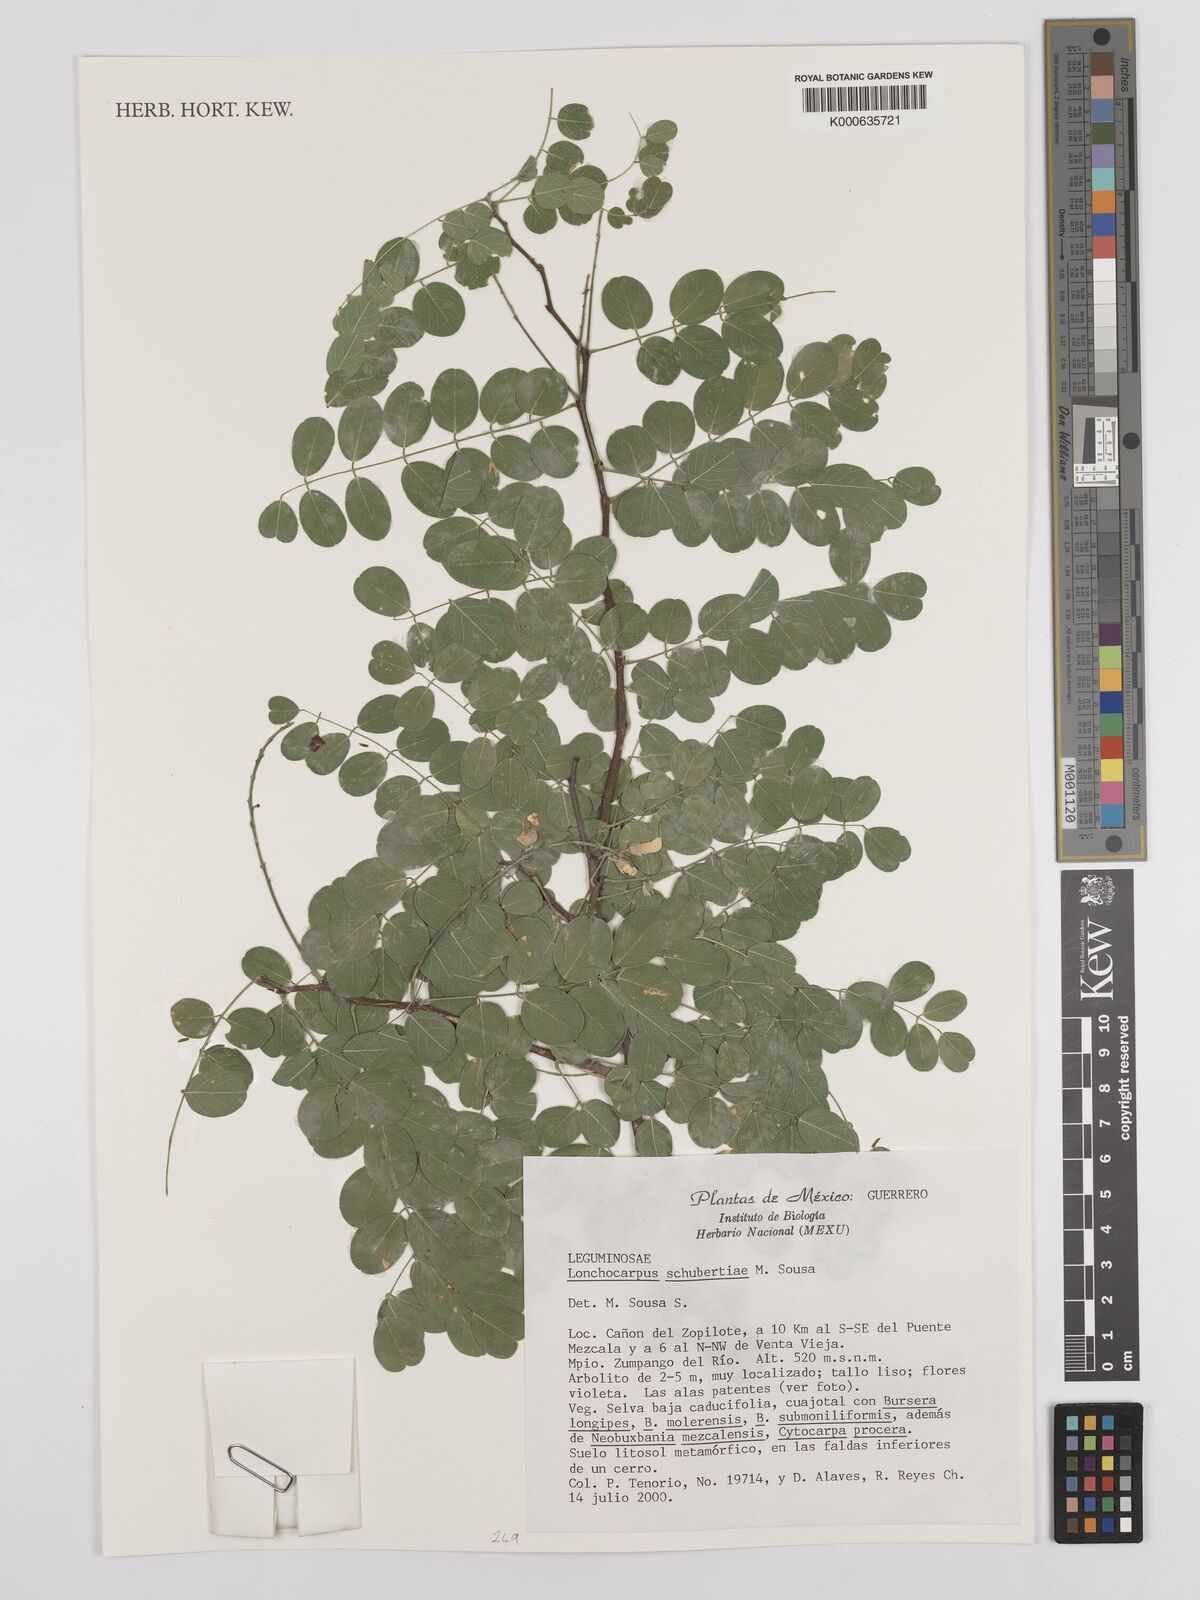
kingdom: Plantae
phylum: Tracheophyta
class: Magnoliopsida
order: Fabales
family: Fabaceae
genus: Lonchocarpus
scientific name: Lonchocarpus schubertiae
